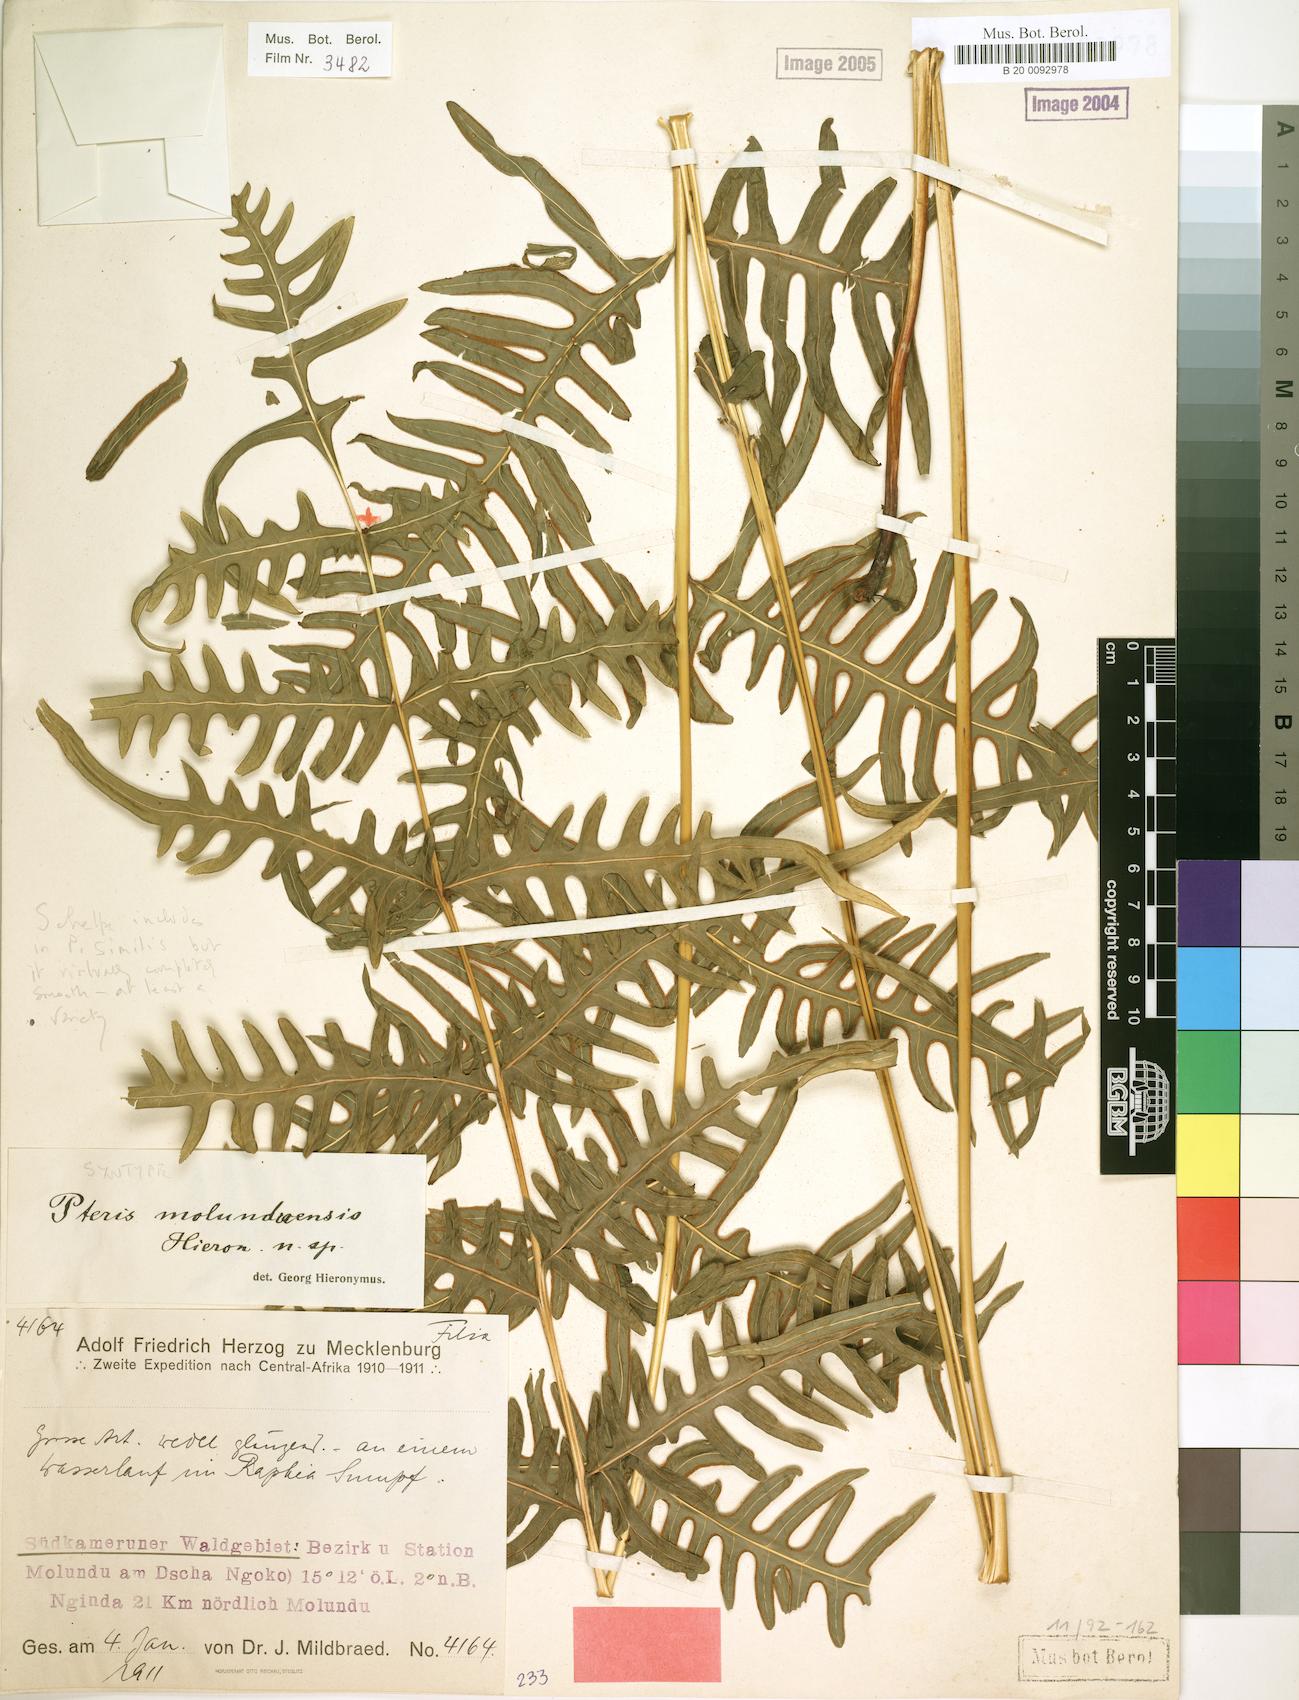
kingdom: Plantae
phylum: Tracheophyta
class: Polypodiopsida
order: Polypodiales
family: Pteridaceae
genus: Pteris
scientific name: Pteris similis
